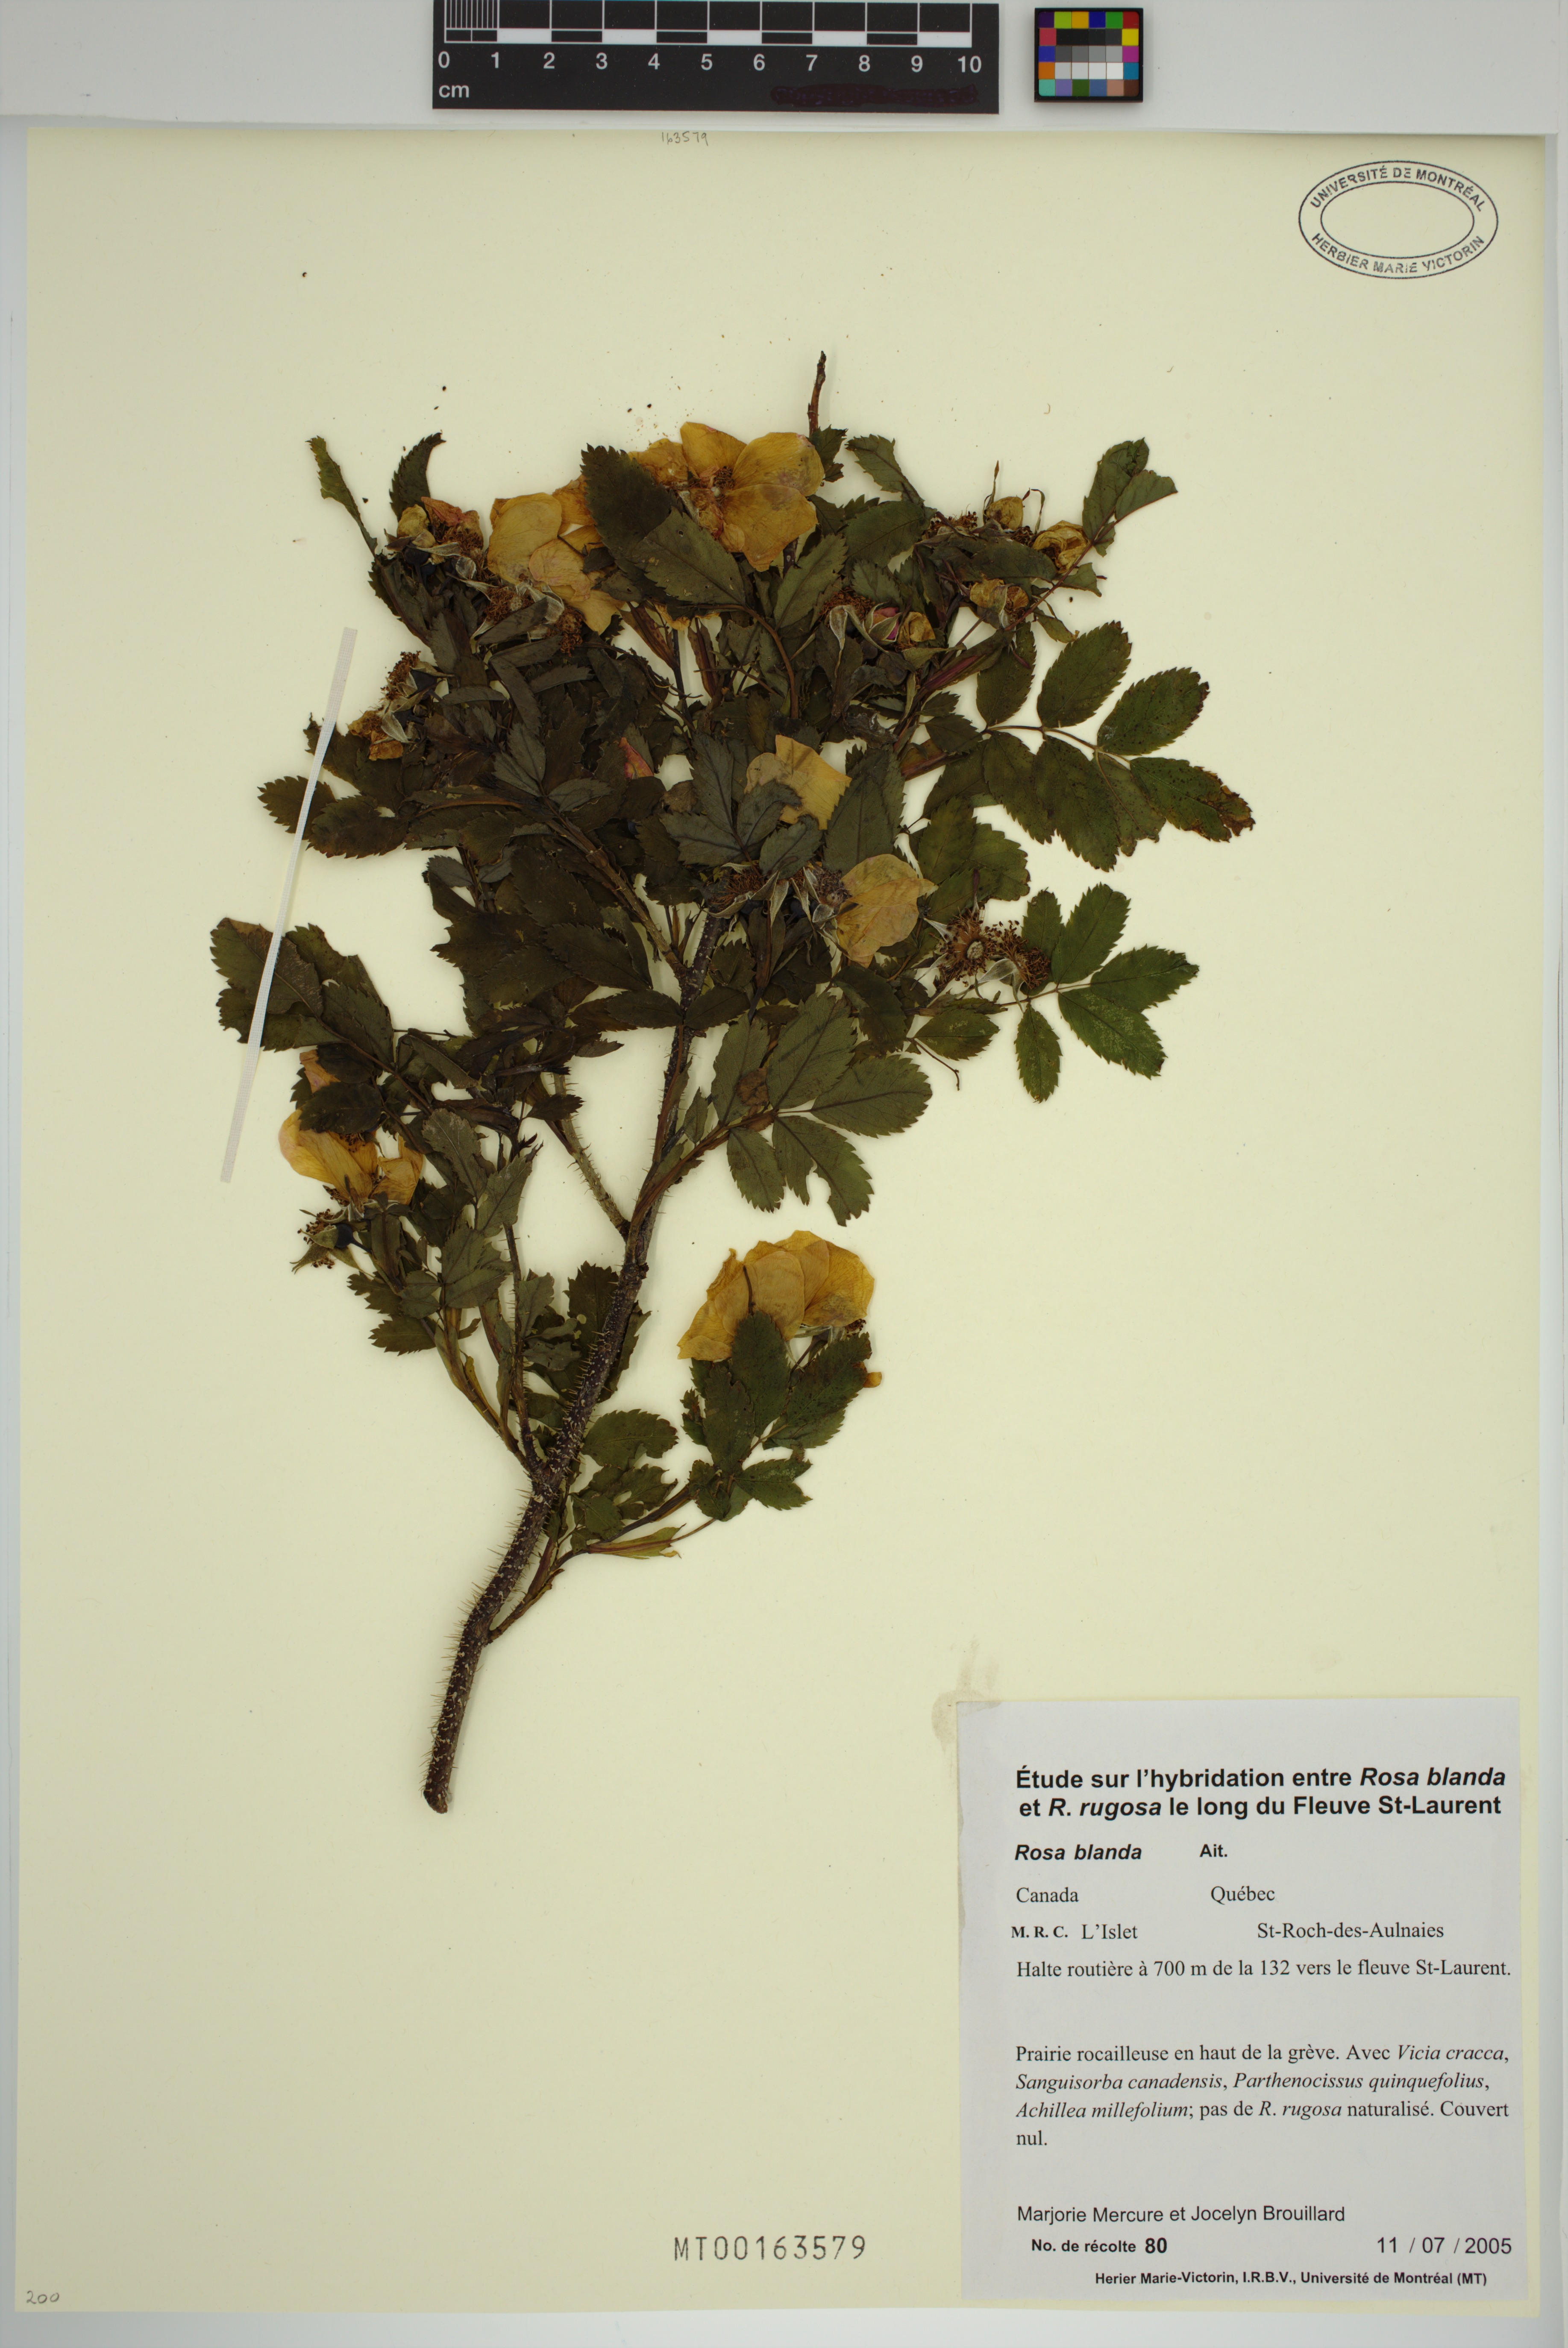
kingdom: Plantae
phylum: Tracheophyta
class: Magnoliopsida
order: Rosales
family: Rosaceae
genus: Rosa
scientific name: Rosa blanda
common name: Smooth rose
